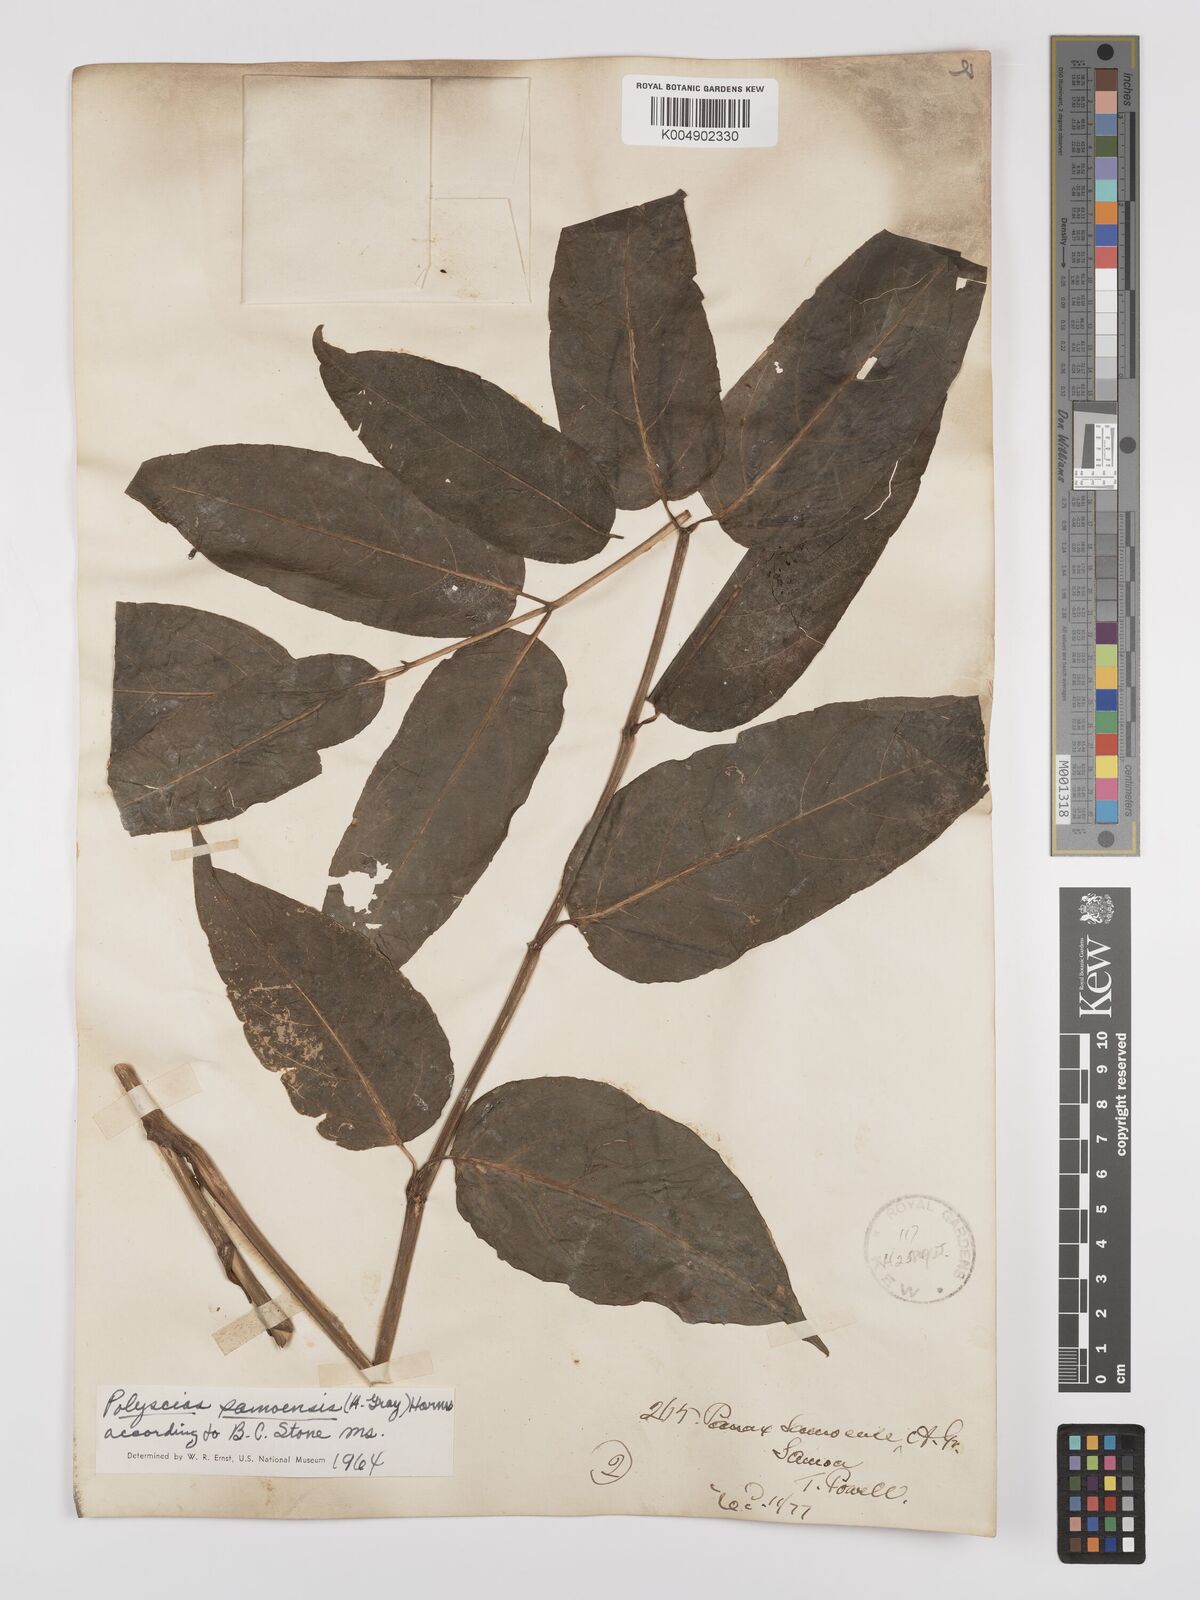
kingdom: Plantae
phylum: Tracheophyta
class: Magnoliopsida
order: Apiales
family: Araliaceae
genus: Polyscias
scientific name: Polyscias samoensis
